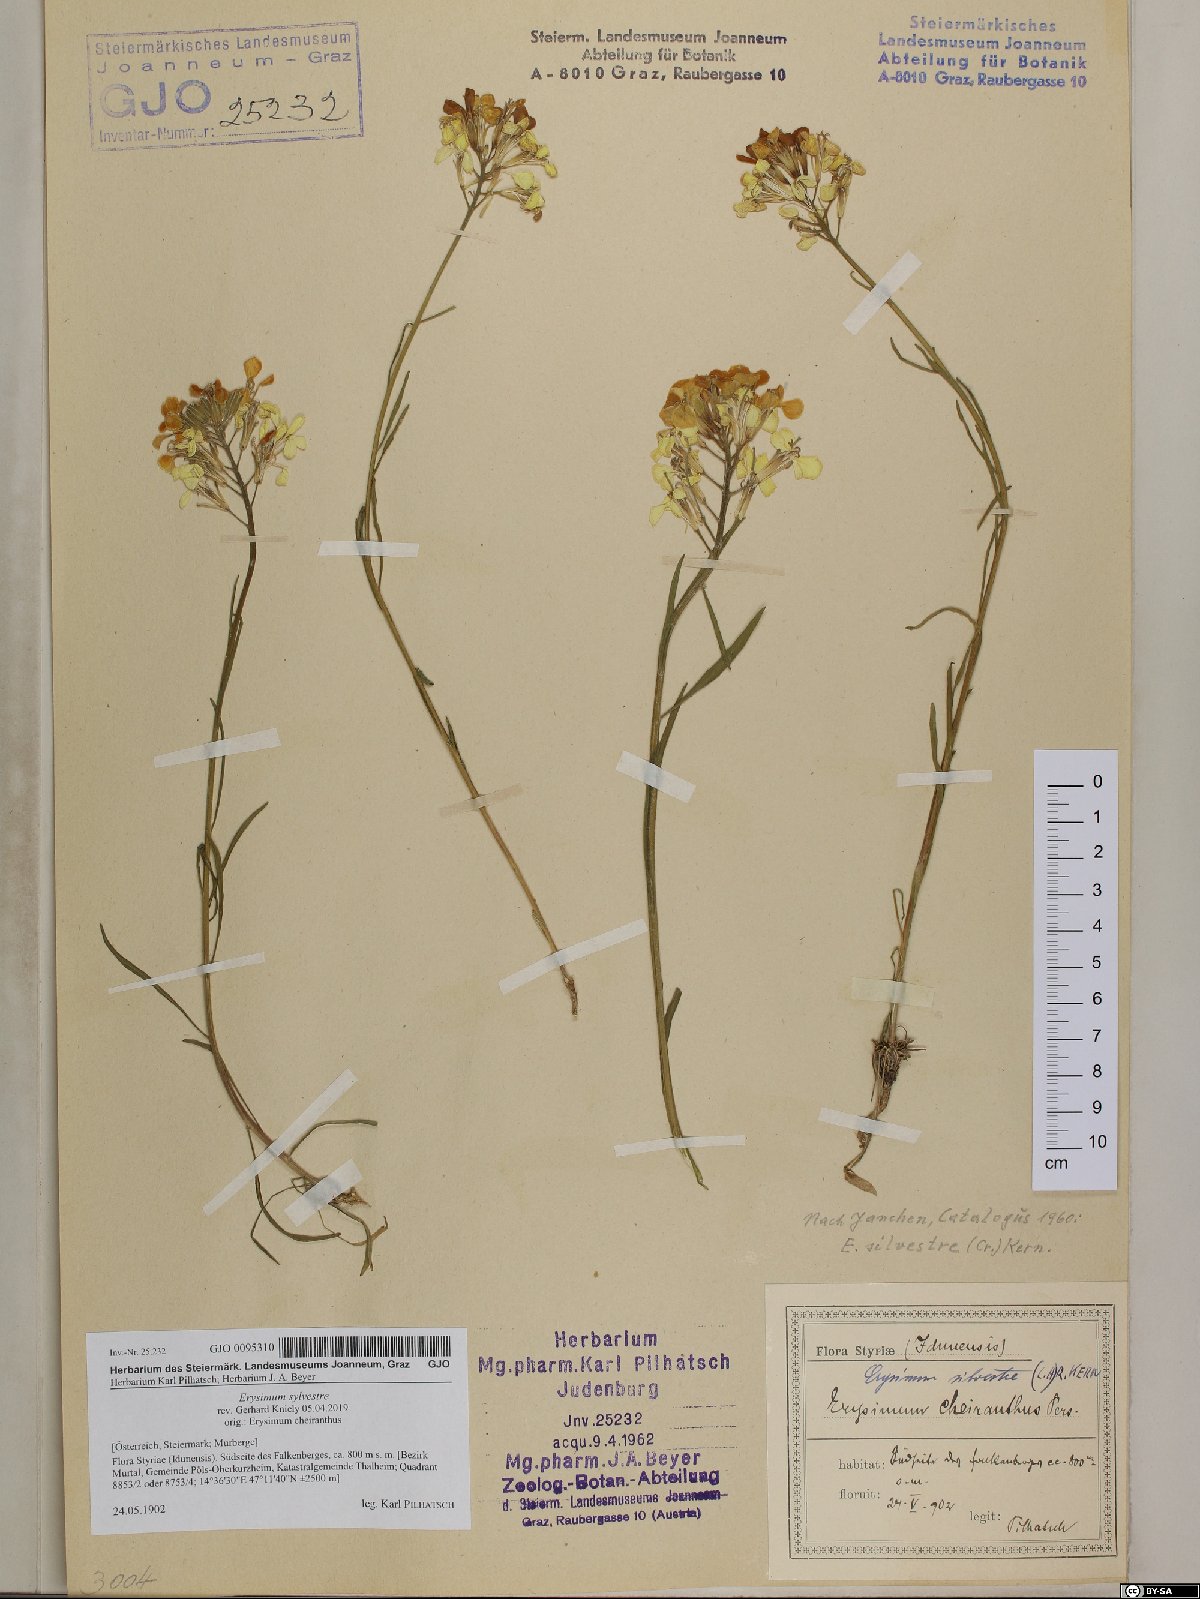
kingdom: Plantae
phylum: Tracheophyta
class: Magnoliopsida
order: Brassicales
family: Brassicaceae
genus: Erysimum
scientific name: Erysimum sylvestre
